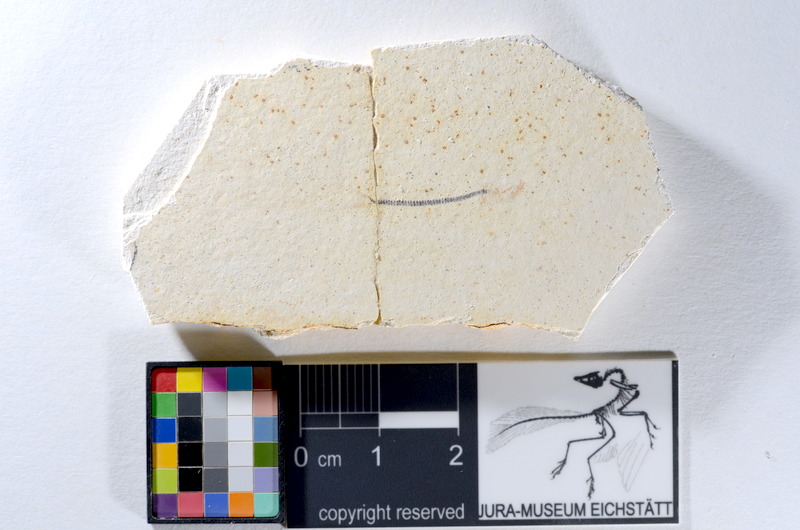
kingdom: Animalia
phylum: Chordata
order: Salmoniformes
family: Orthogonikleithridae
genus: Orthogonikleithrus
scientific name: Orthogonikleithrus hoelli
